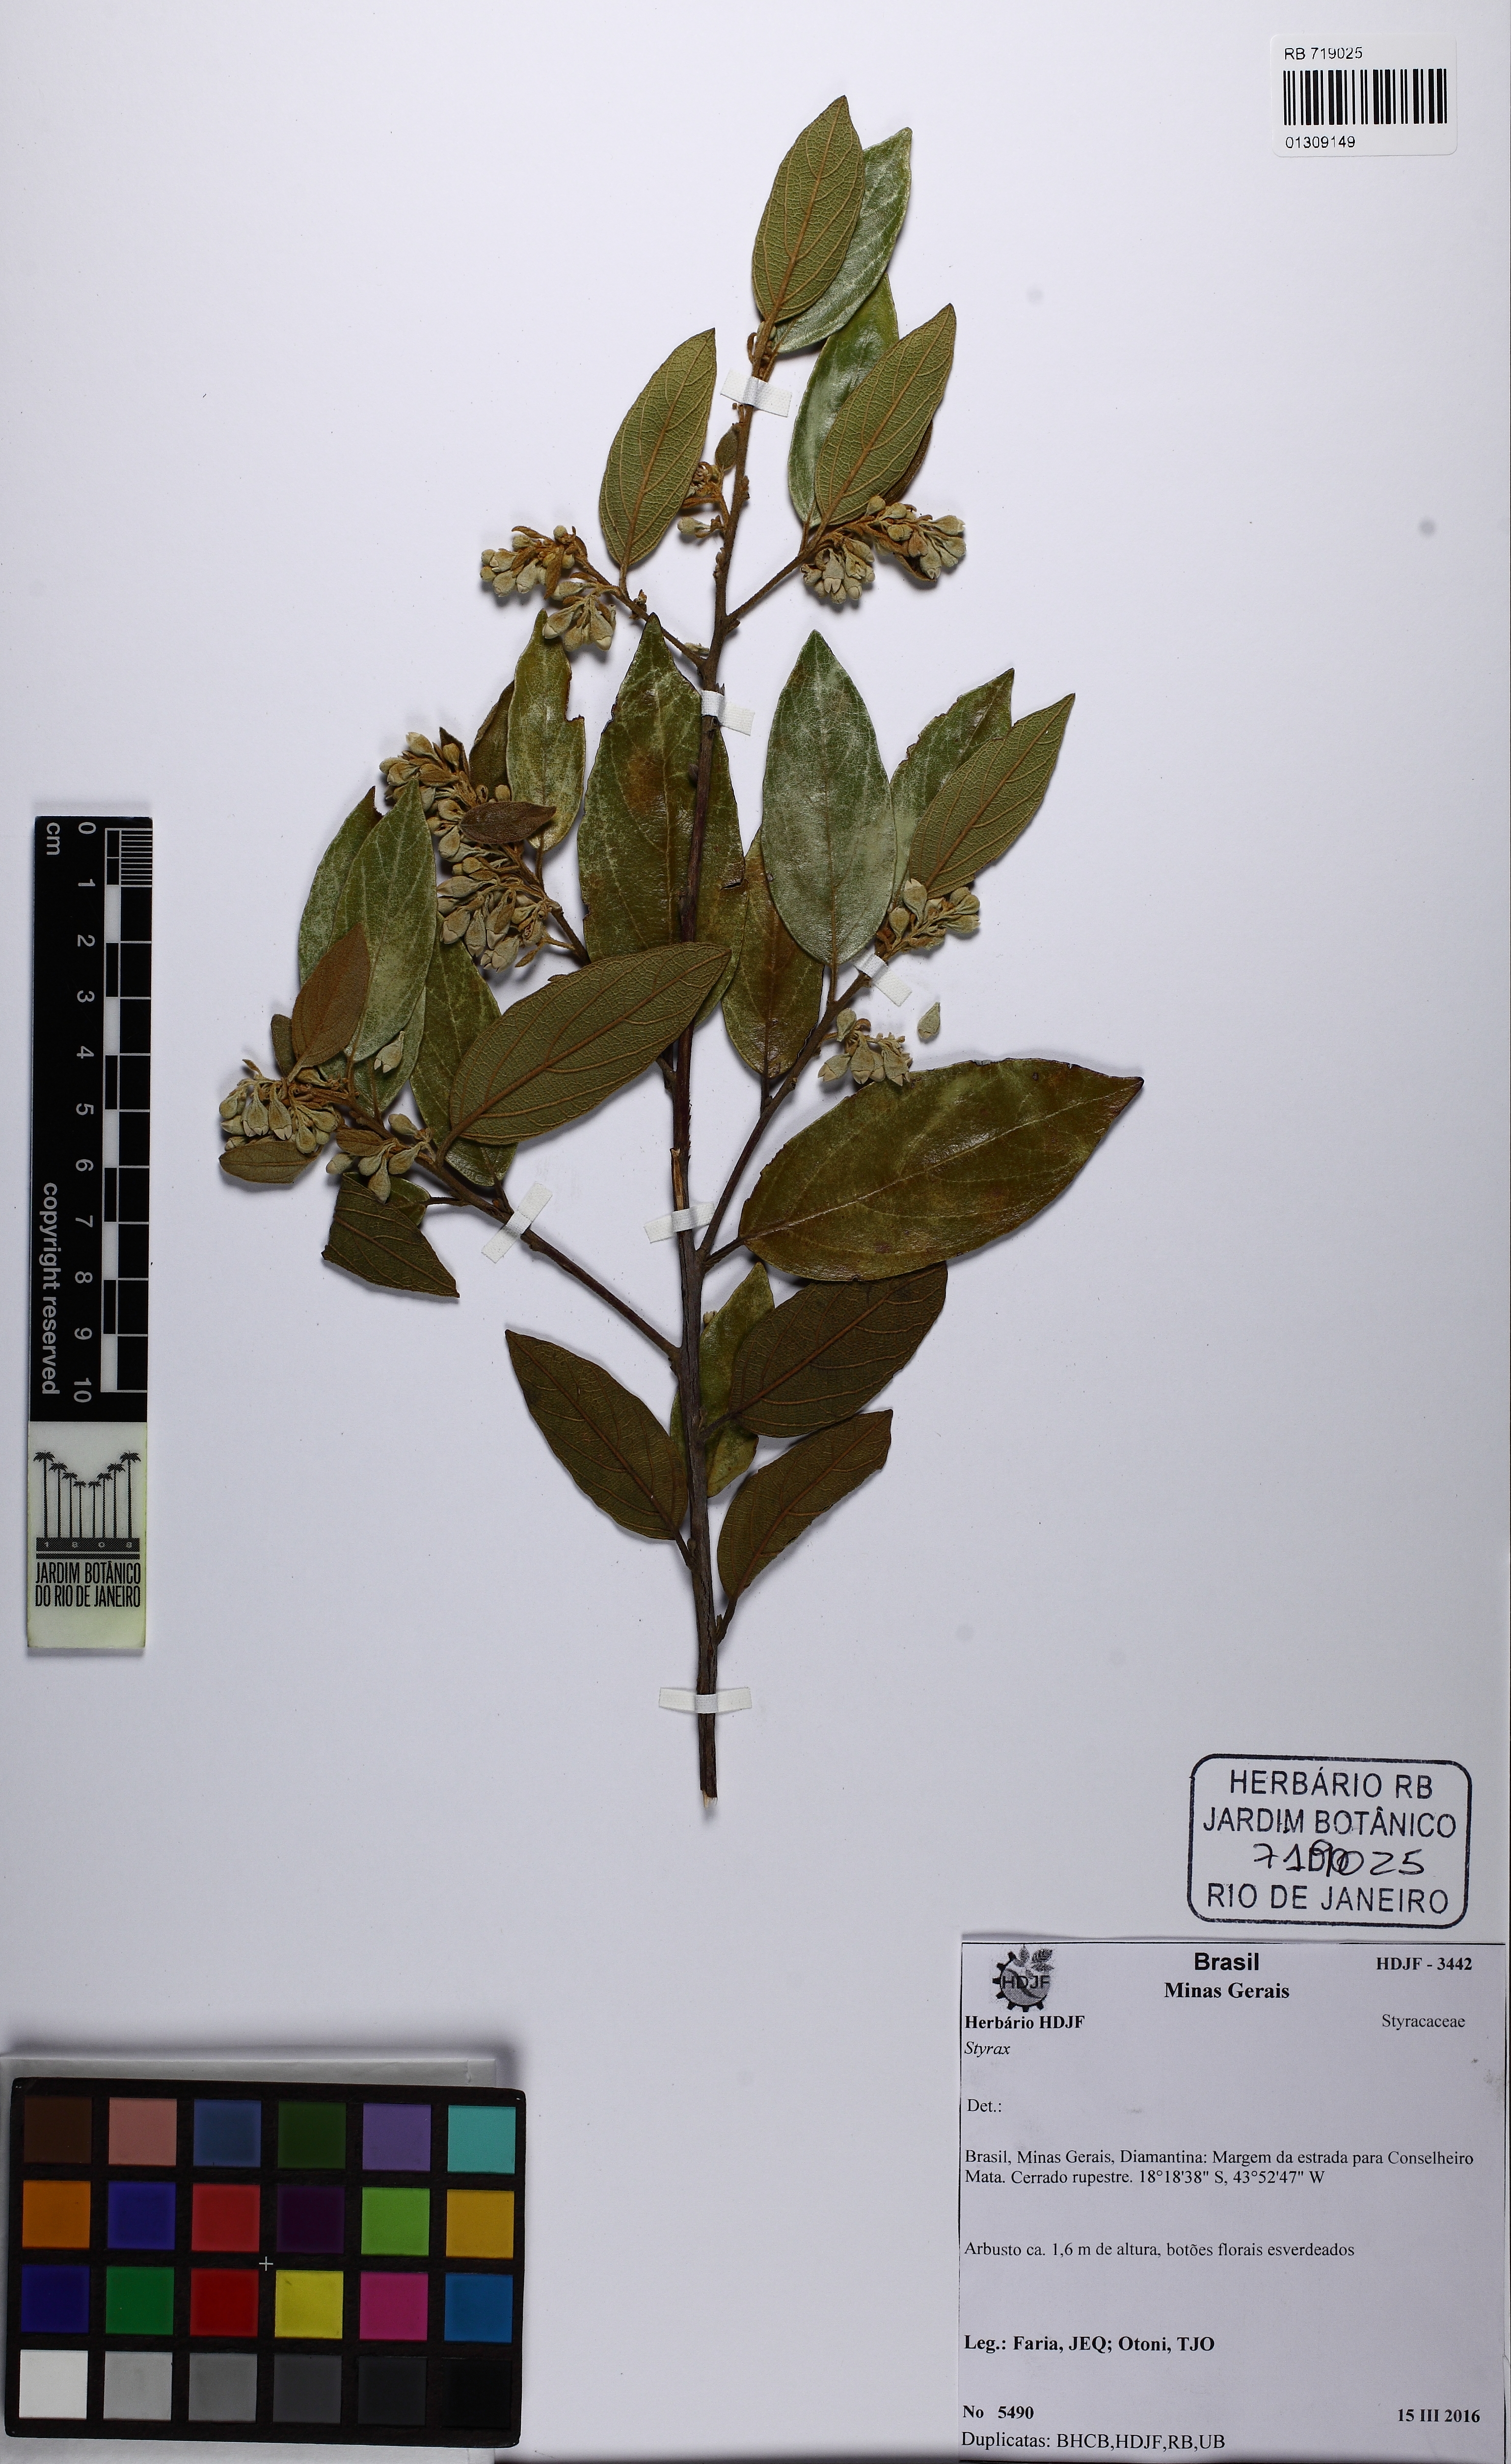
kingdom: Plantae
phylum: Tracheophyta
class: Magnoliopsida
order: Ericales
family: Styracaceae
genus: Styrax
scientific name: Styrax
